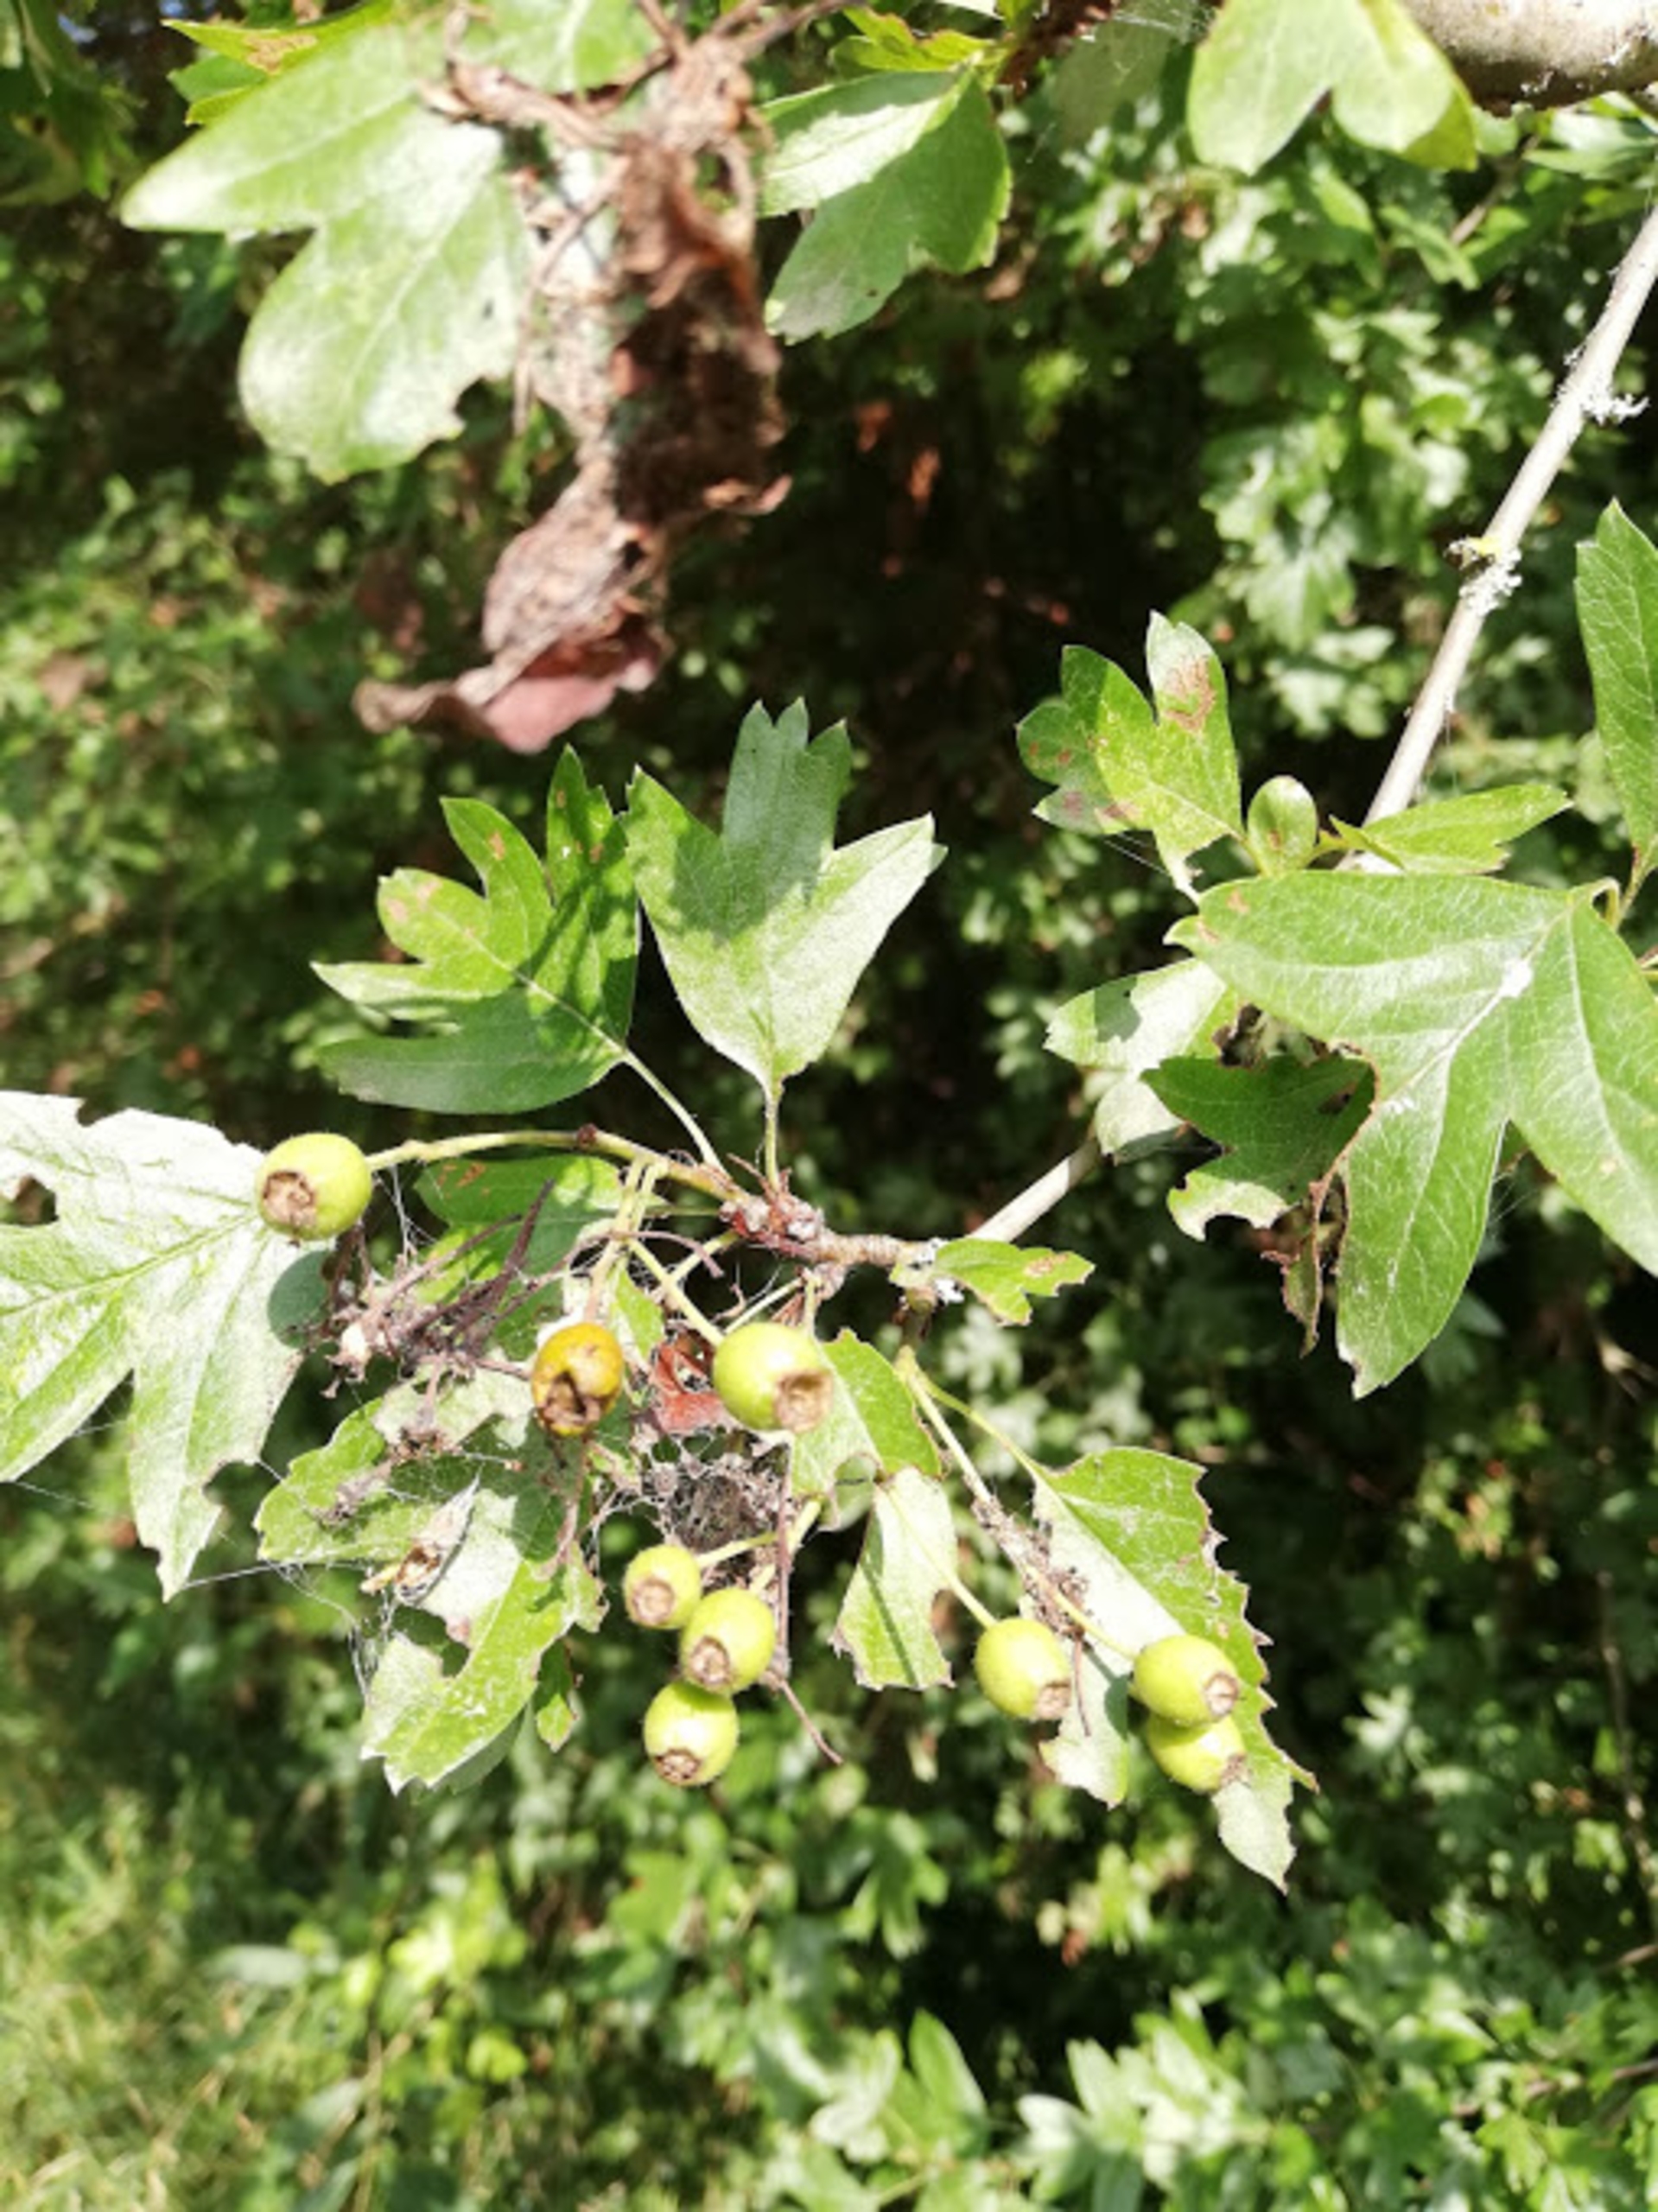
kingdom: Plantae
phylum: Tracheophyta
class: Magnoliopsida
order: Rosales
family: Rosaceae
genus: Crataegus
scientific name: Crataegus monogyna
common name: Engriflet hvidtjørn
